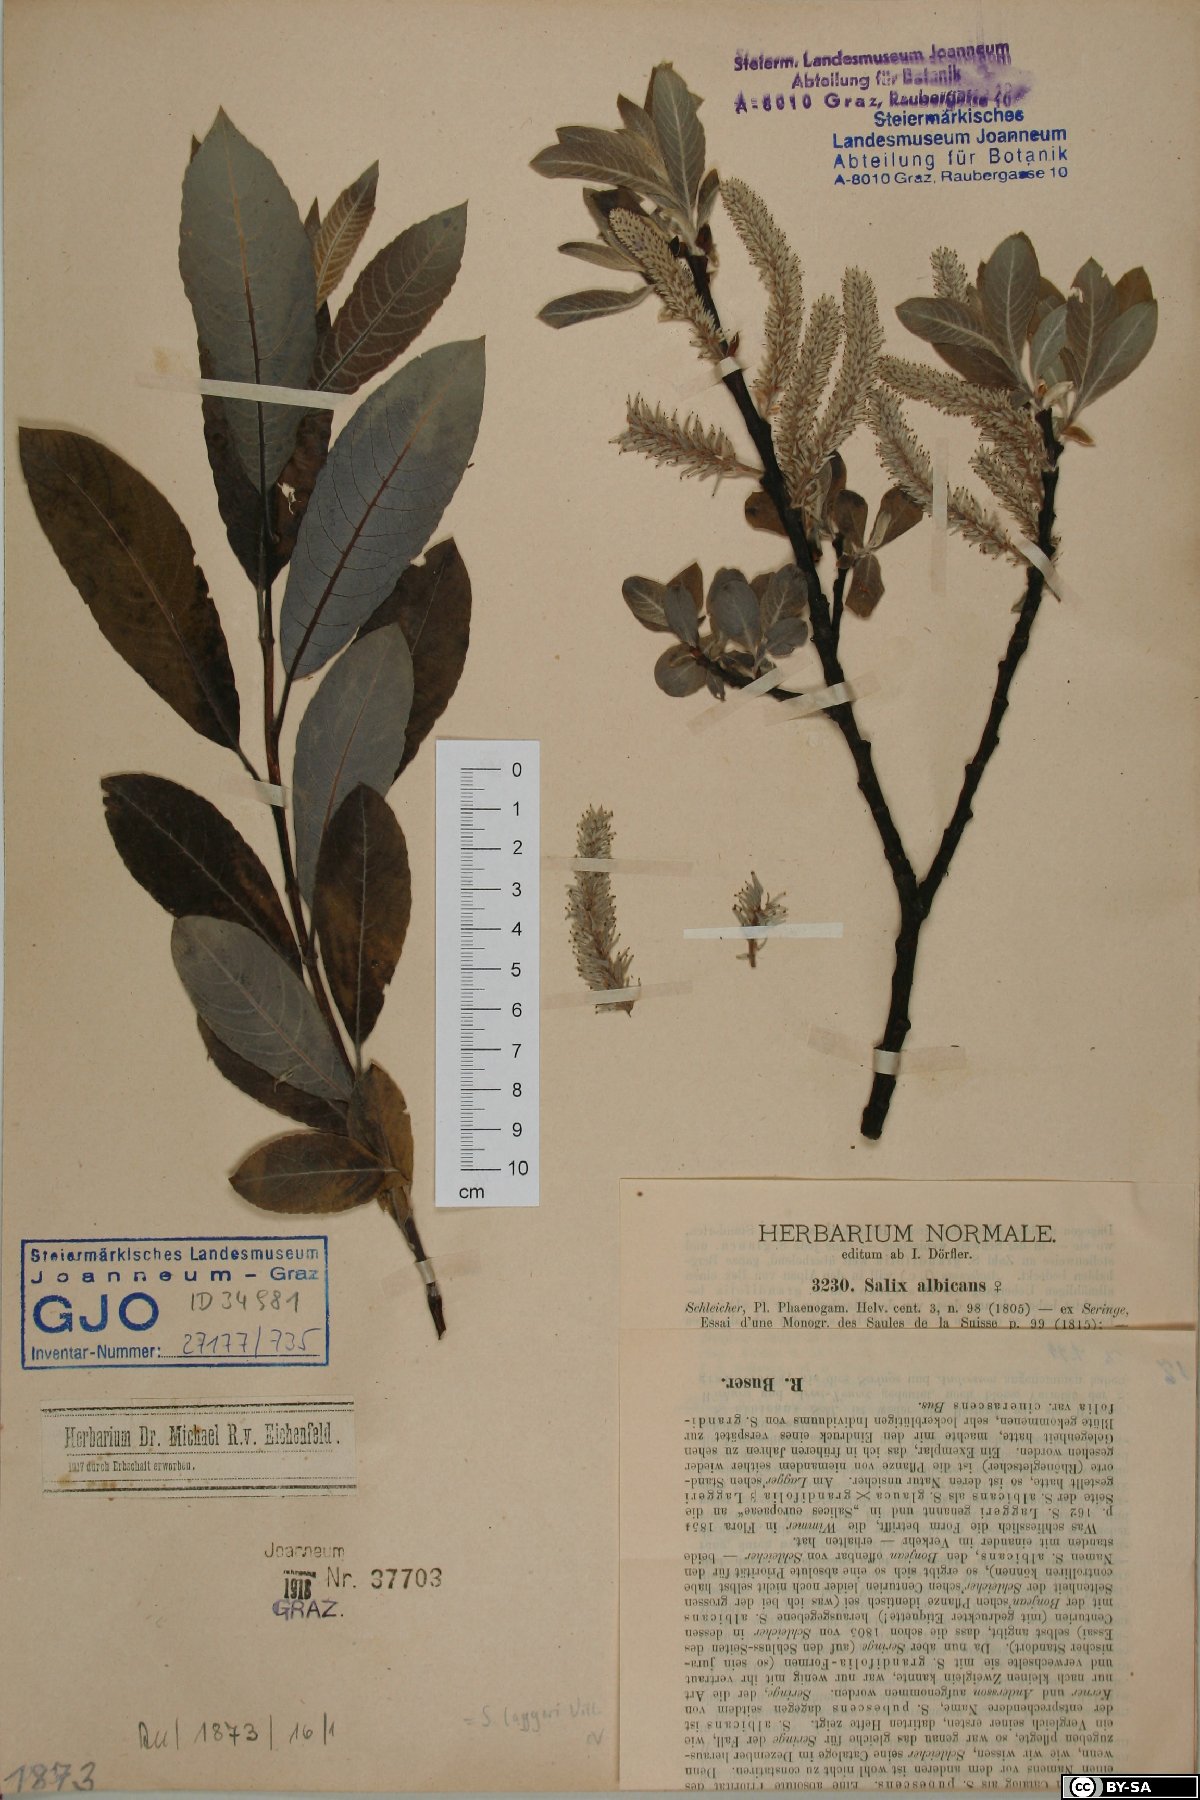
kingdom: Plantae
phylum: Tracheophyta
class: Magnoliopsida
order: Malpighiales
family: Salicaceae
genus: Salix
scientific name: Salix laggeri
